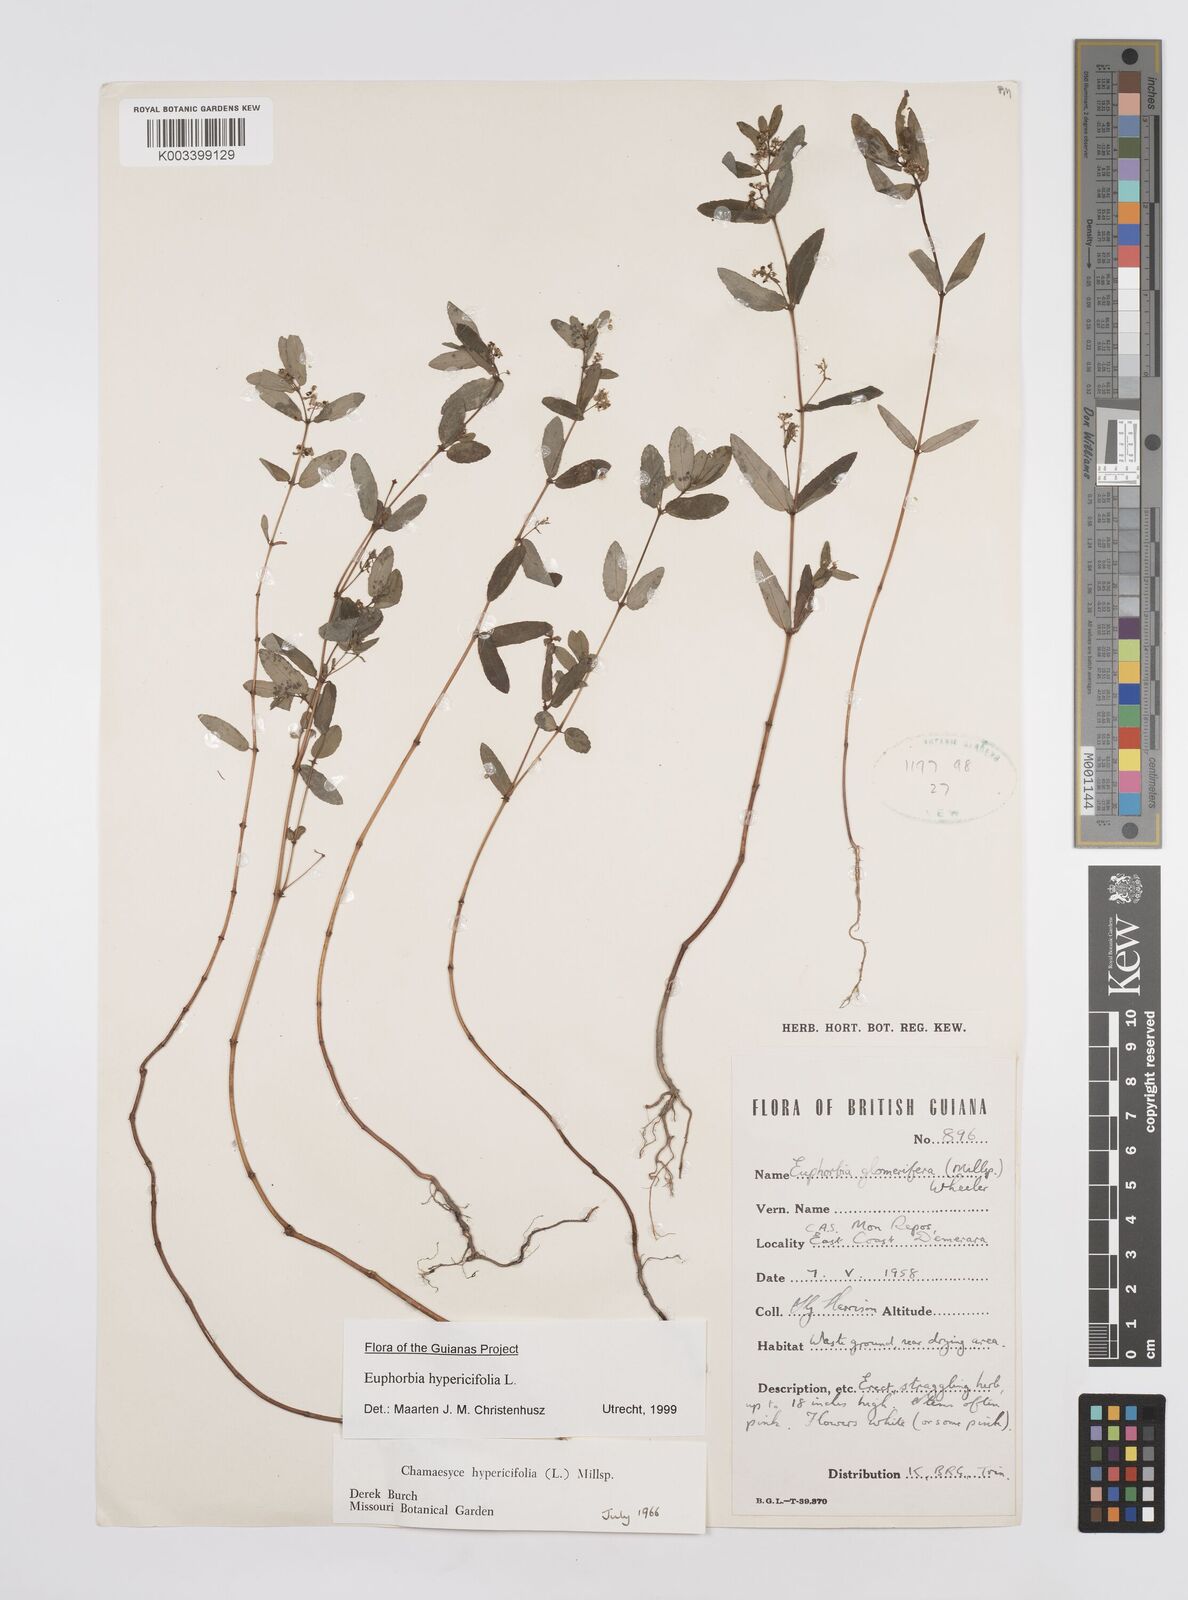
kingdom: Plantae
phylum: Tracheophyta
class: Magnoliopsida
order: Malpighiales
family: Euphorbiaceae
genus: Euphorbia
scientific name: Euphorbia hypericifolia
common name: Graceful sandmat
